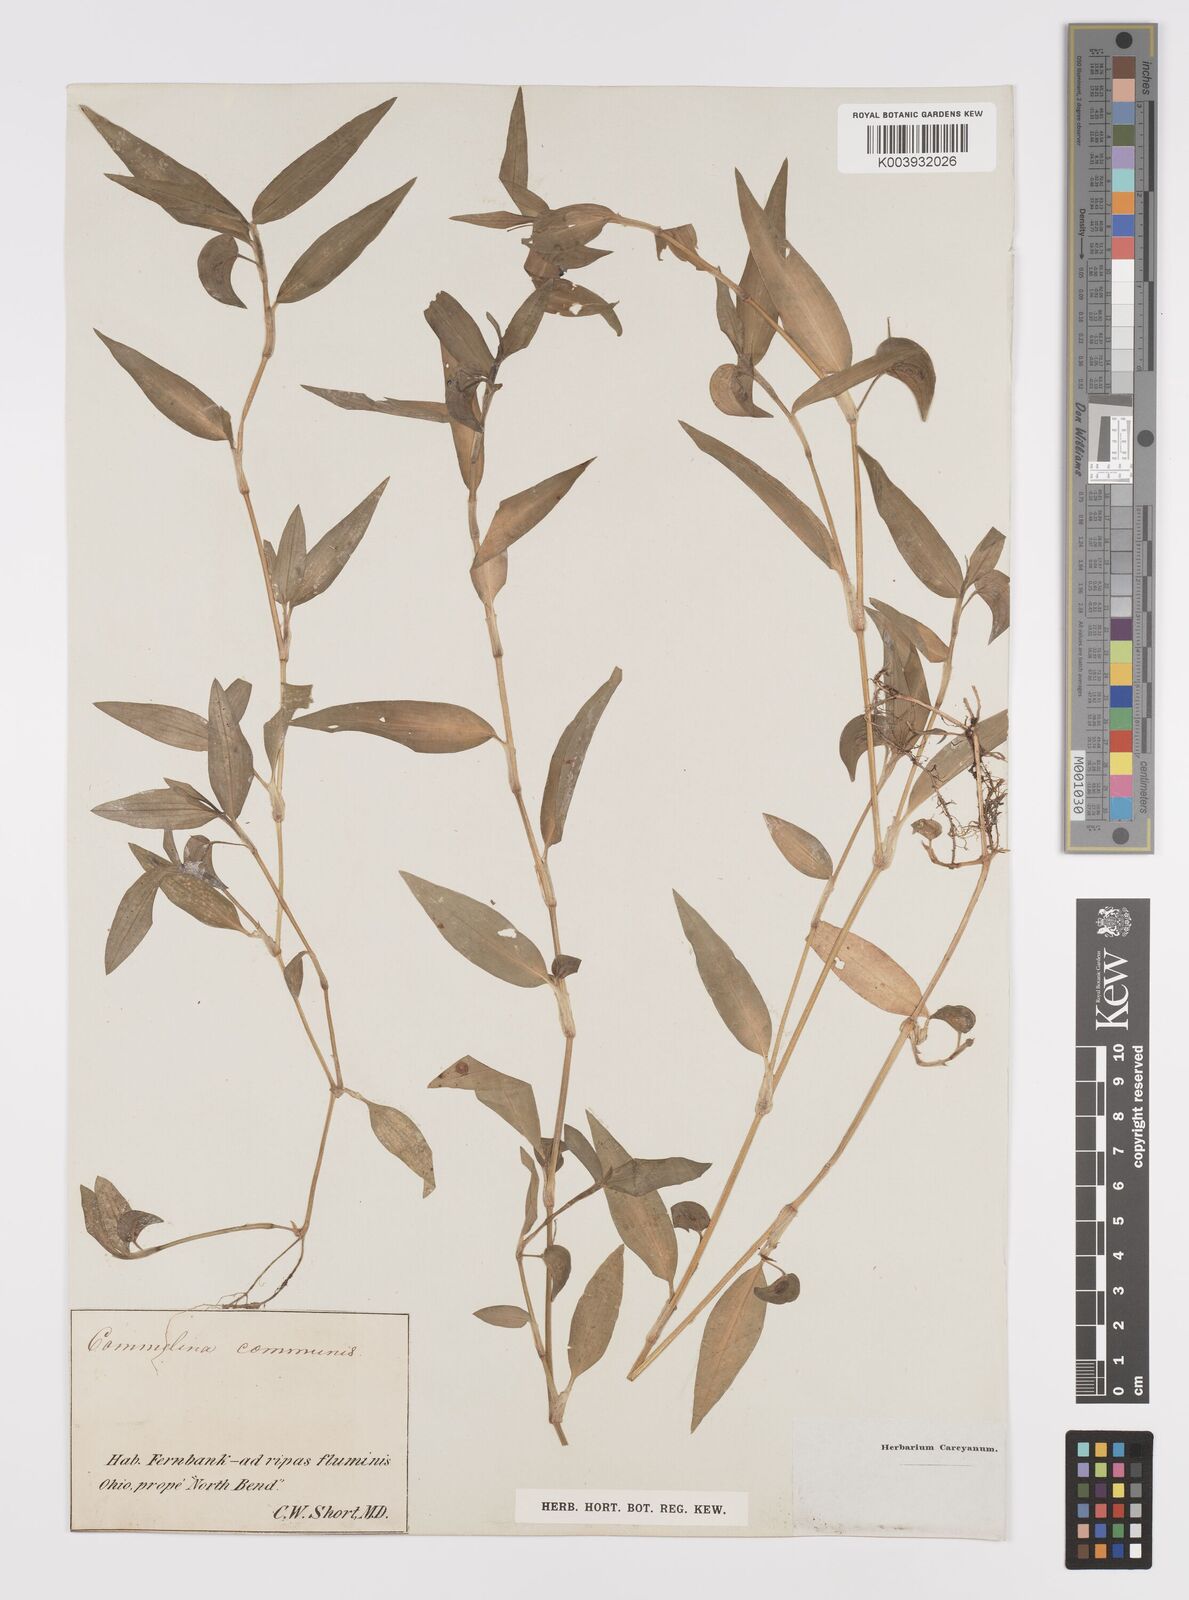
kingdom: Plantae
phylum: Tracheophyta
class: Liliopsida
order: Commelinales
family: Commelinaceae
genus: Commelina
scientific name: Commelina diffusa
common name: Climbing dayflower
